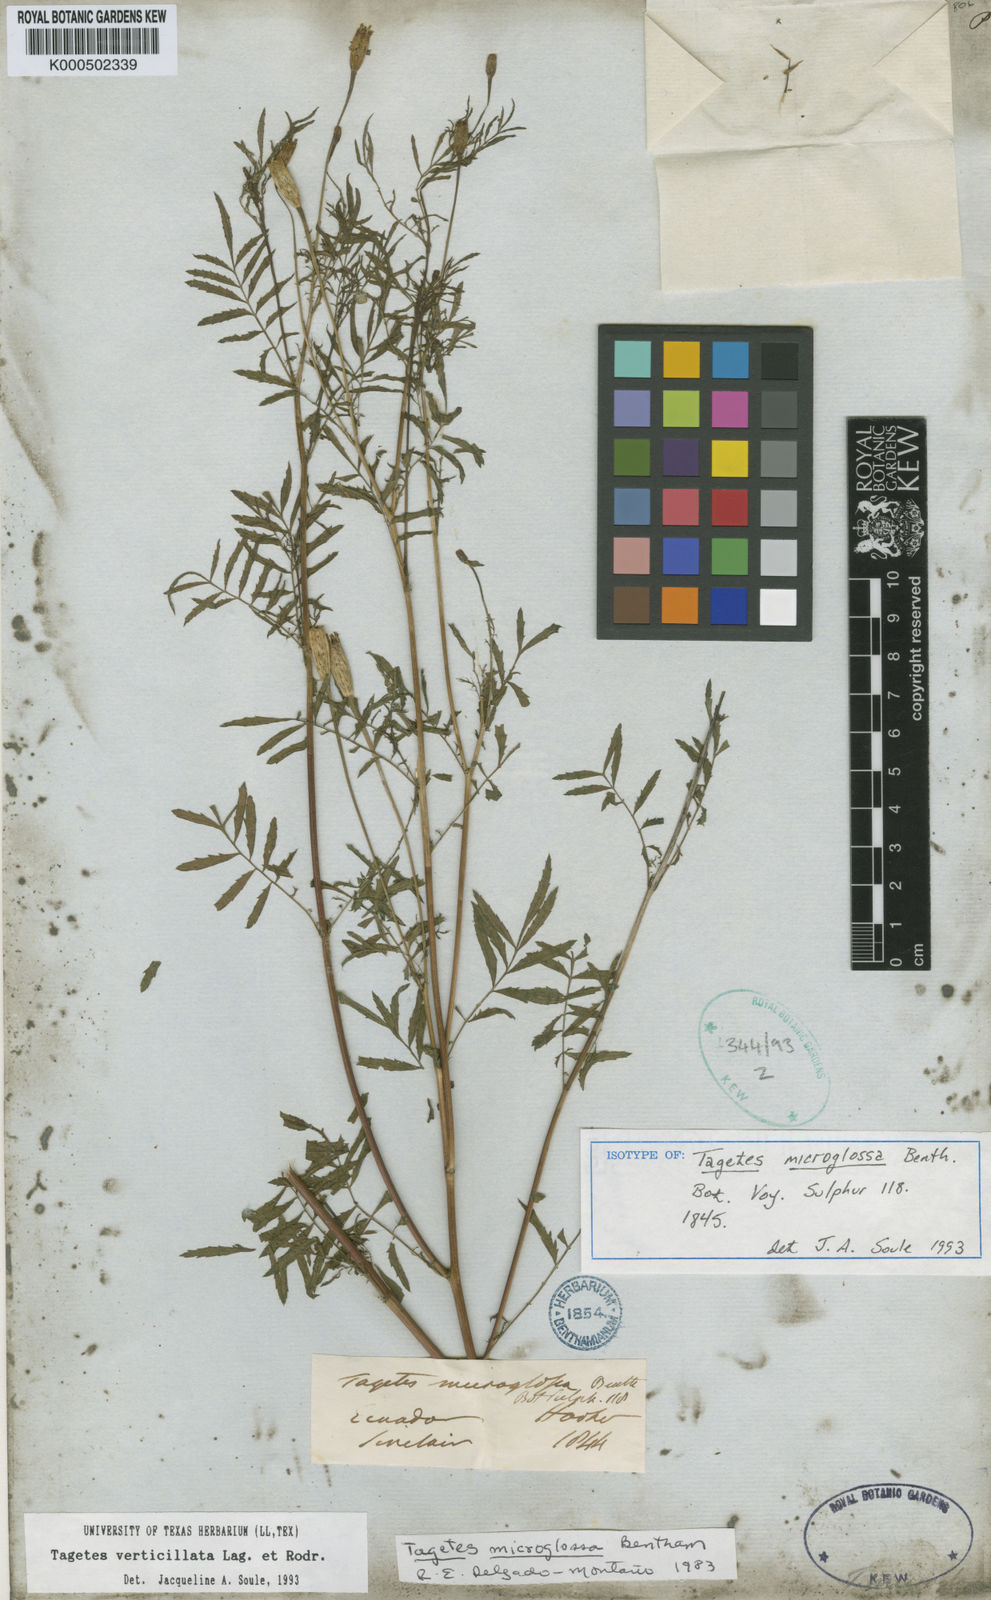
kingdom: Plantae
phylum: Tracheophyta
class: Magnoliopsida
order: Asterales
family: Asteraceae
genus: Tagetes
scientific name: Tagetes tenuifolia
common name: Signet marigold
